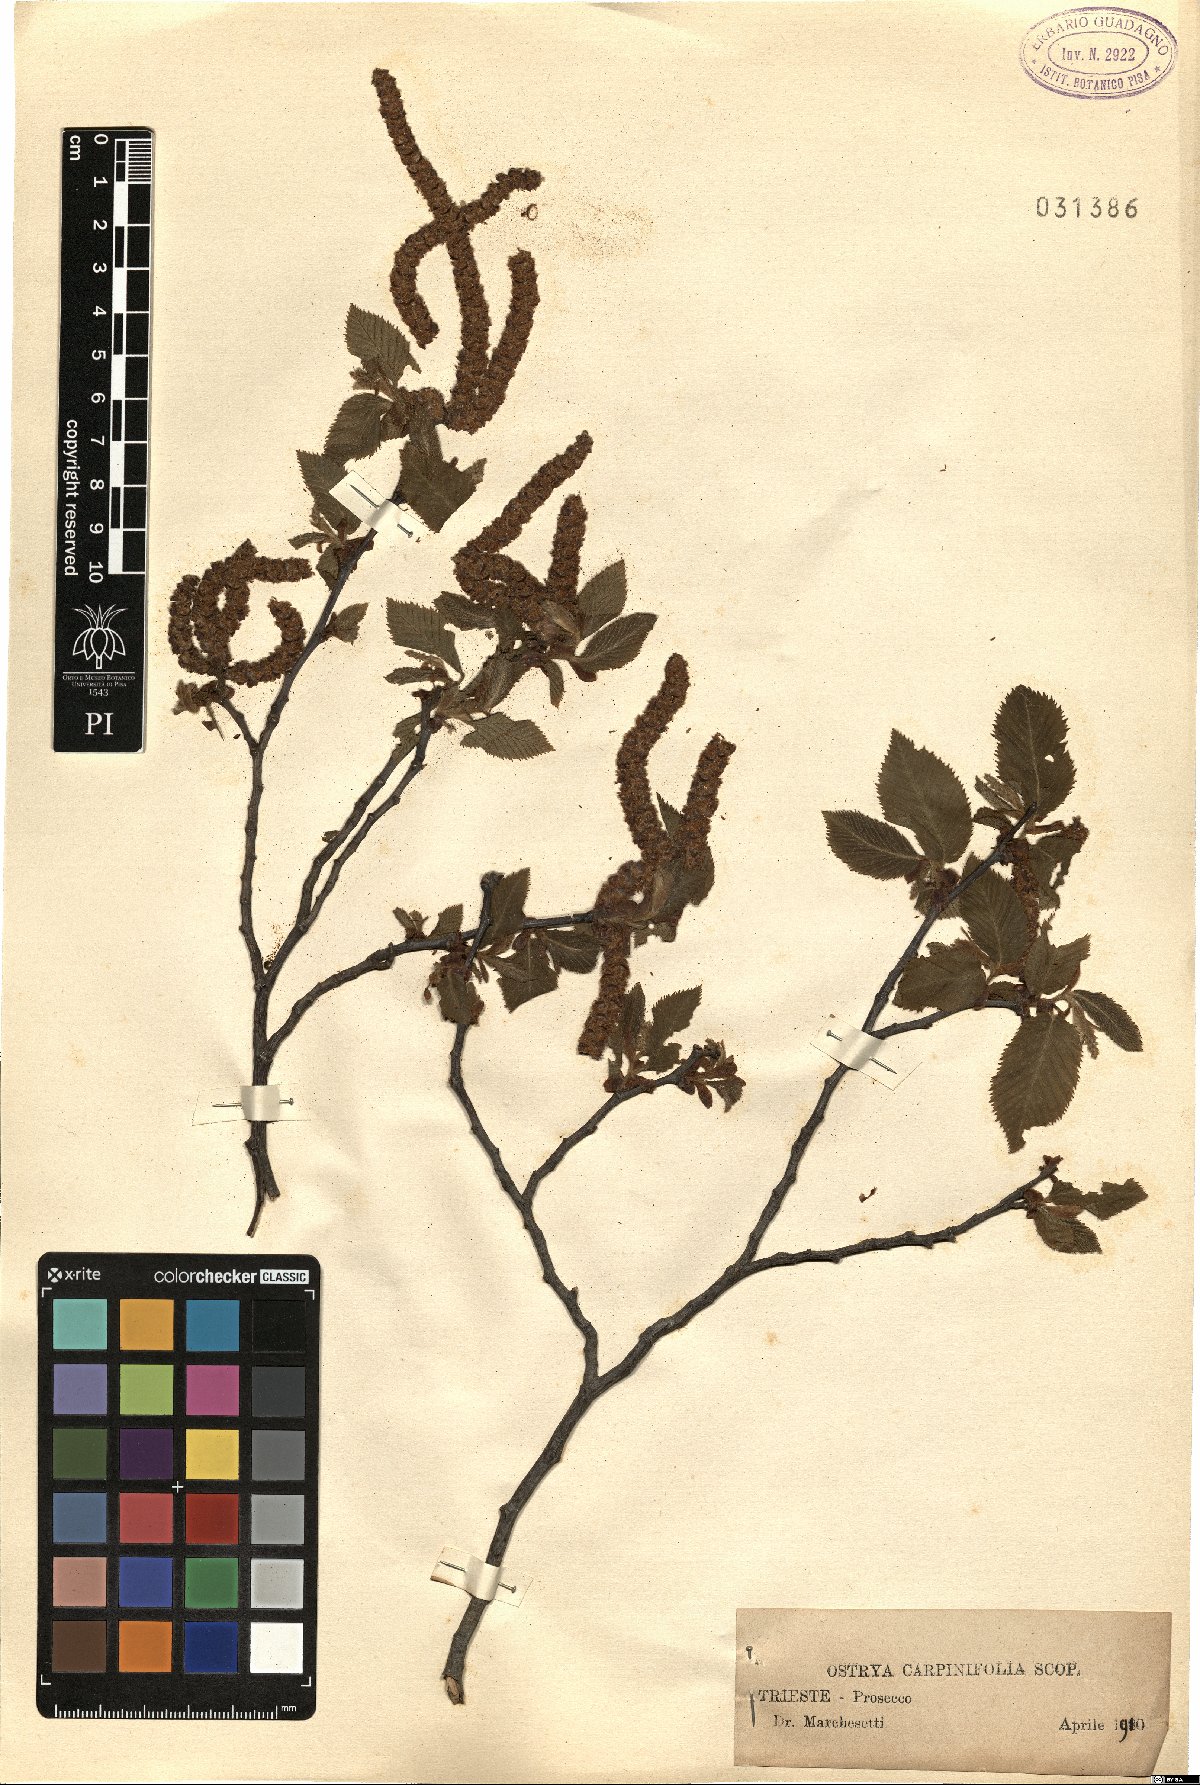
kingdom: Plantae
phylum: Tracheophyta
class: Magnoliopsida
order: Fagales
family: Betulaceae
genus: Ostrya
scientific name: Ostrya carpinifolia
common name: European hop-hornbeam
